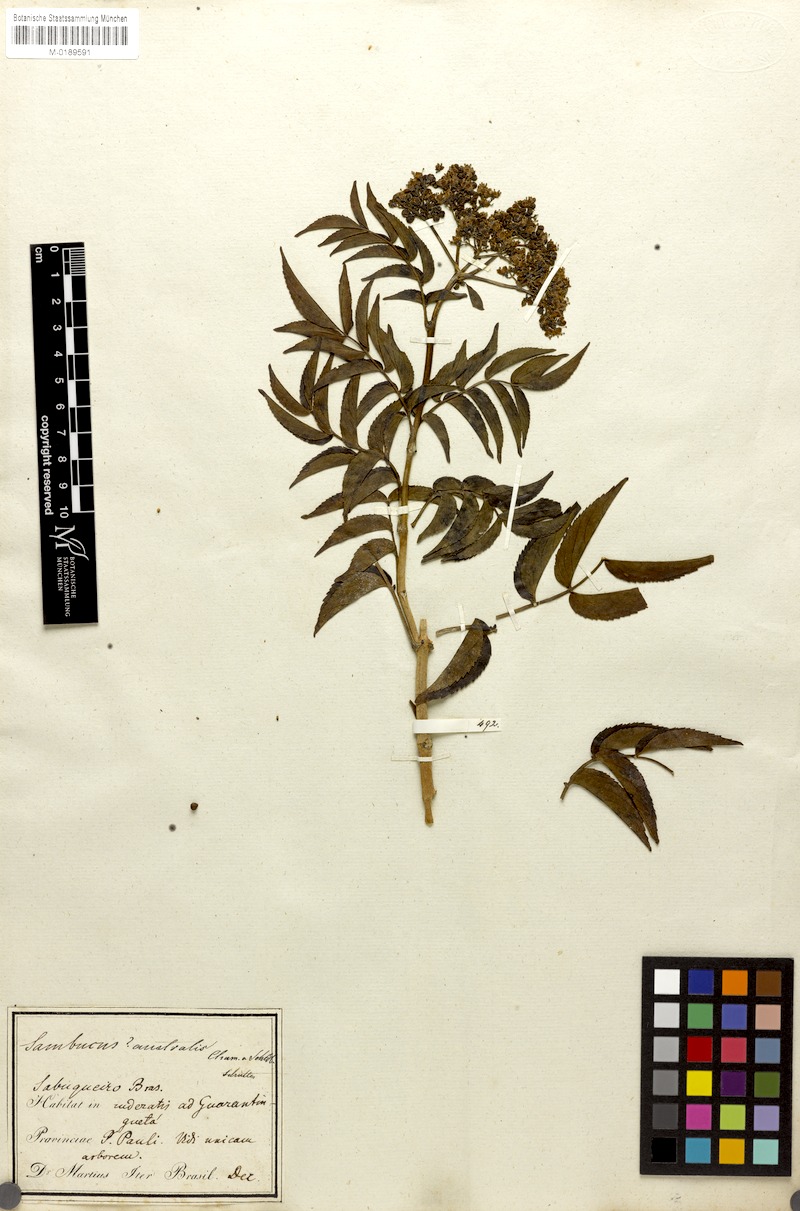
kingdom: Plantae
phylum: Tracheophyta
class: Magnoliopsida
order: Dipsacales
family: Viburnaceae
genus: Sambucus
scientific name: Sambucus australis
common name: Southern elder
